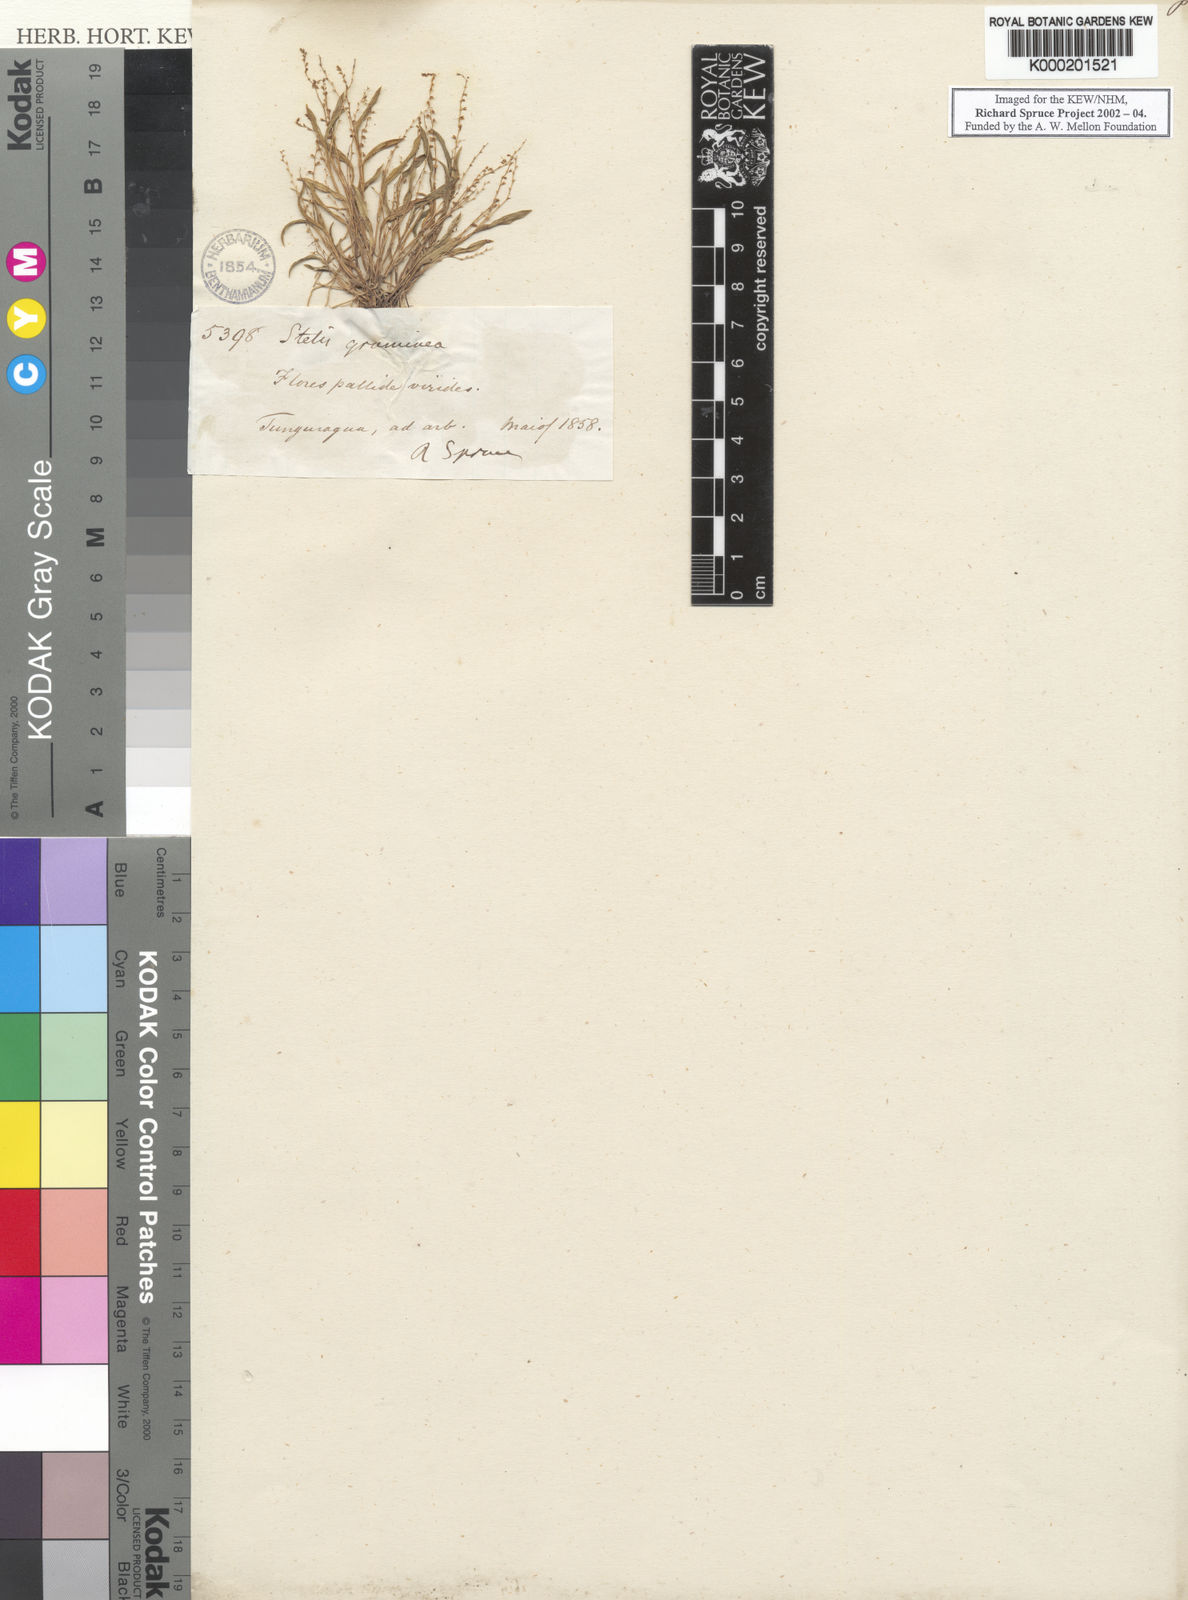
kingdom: Plantae
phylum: Tracheophyta
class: Liliopsida
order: Asparagales
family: Orchidaceae
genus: Stelis
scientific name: Stelis pusilla
